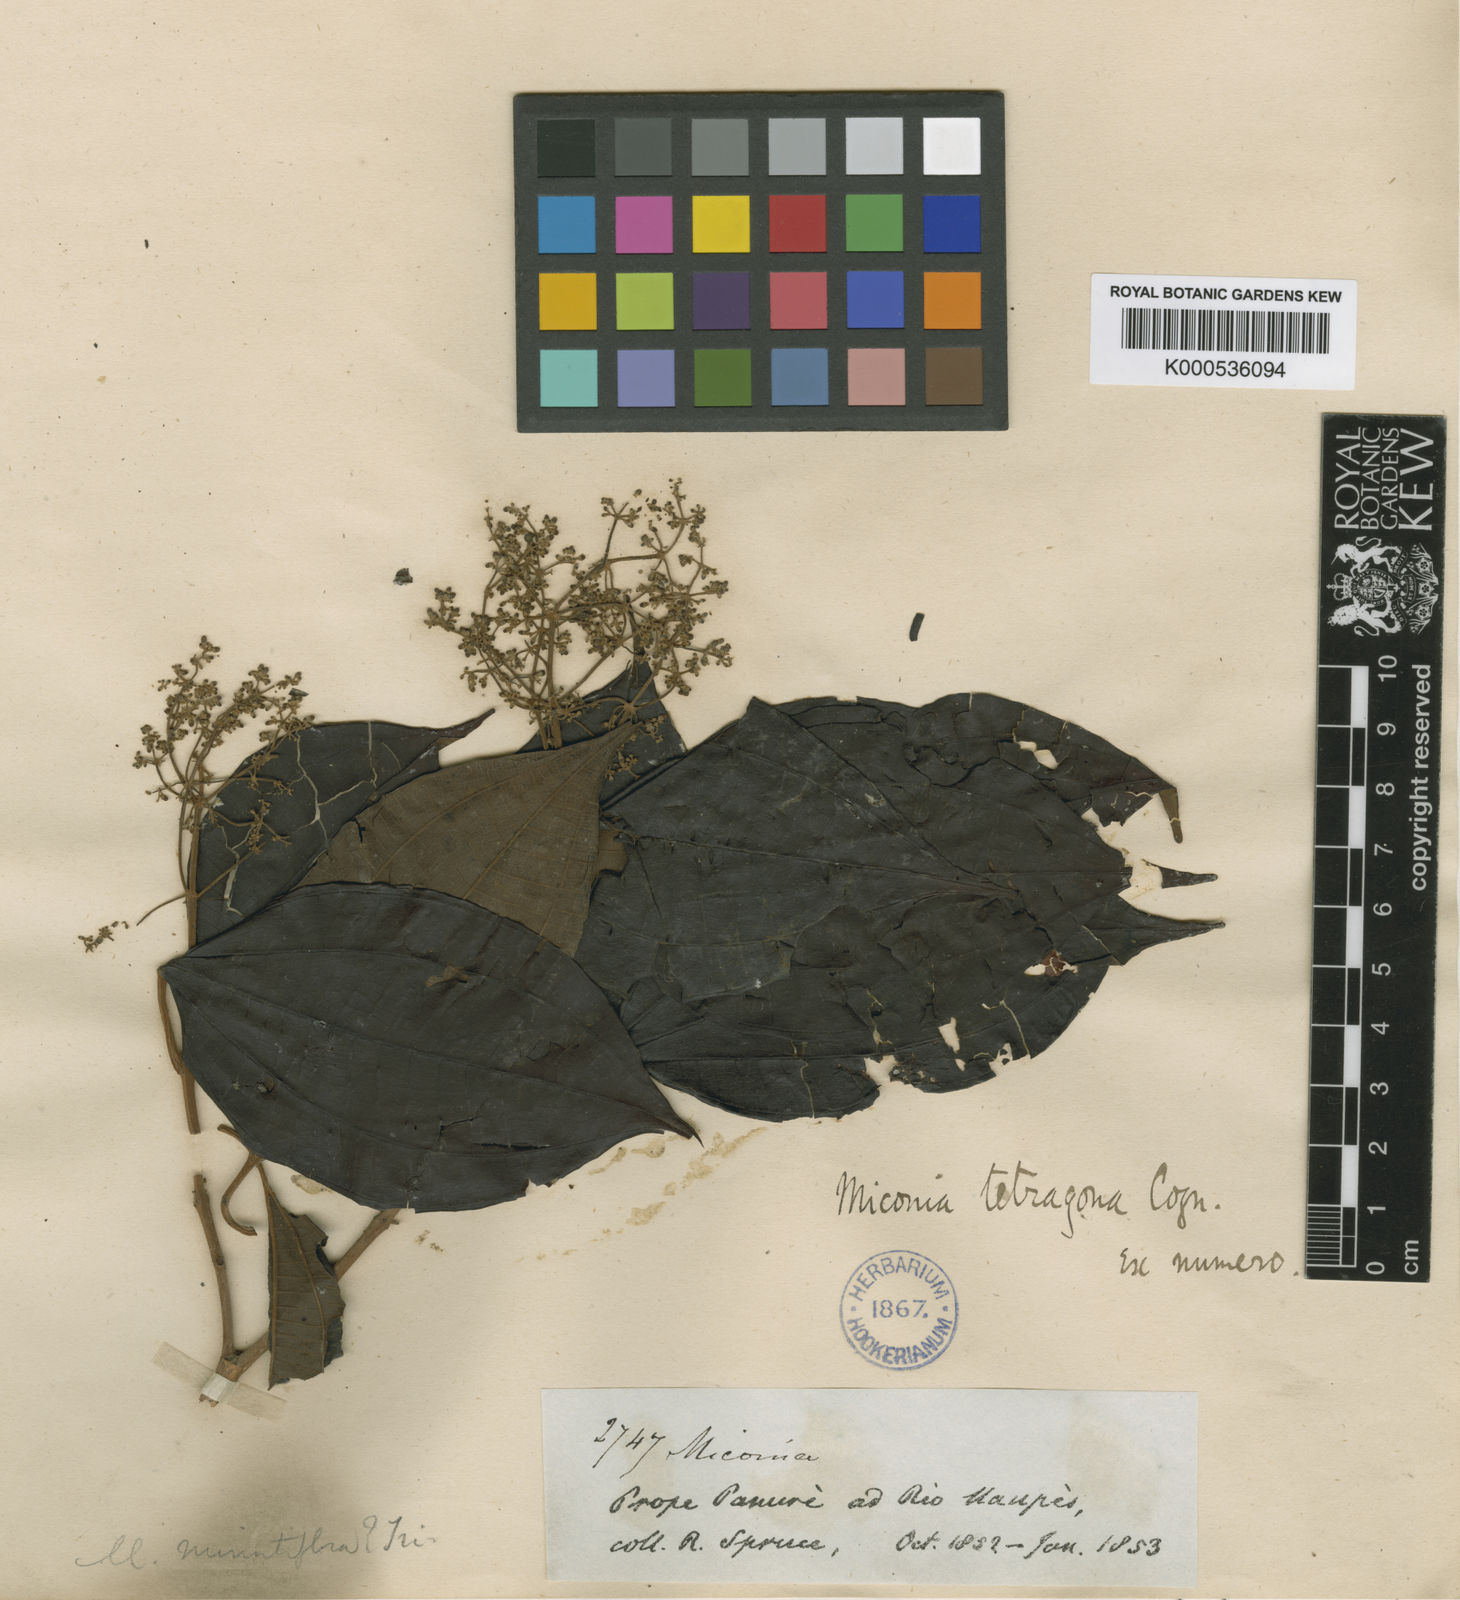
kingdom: Plantae
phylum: Tracheophyta
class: Magnoliopsida
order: Myrtales
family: Melastomataceae
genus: Miconia
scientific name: Miconia tetragona
